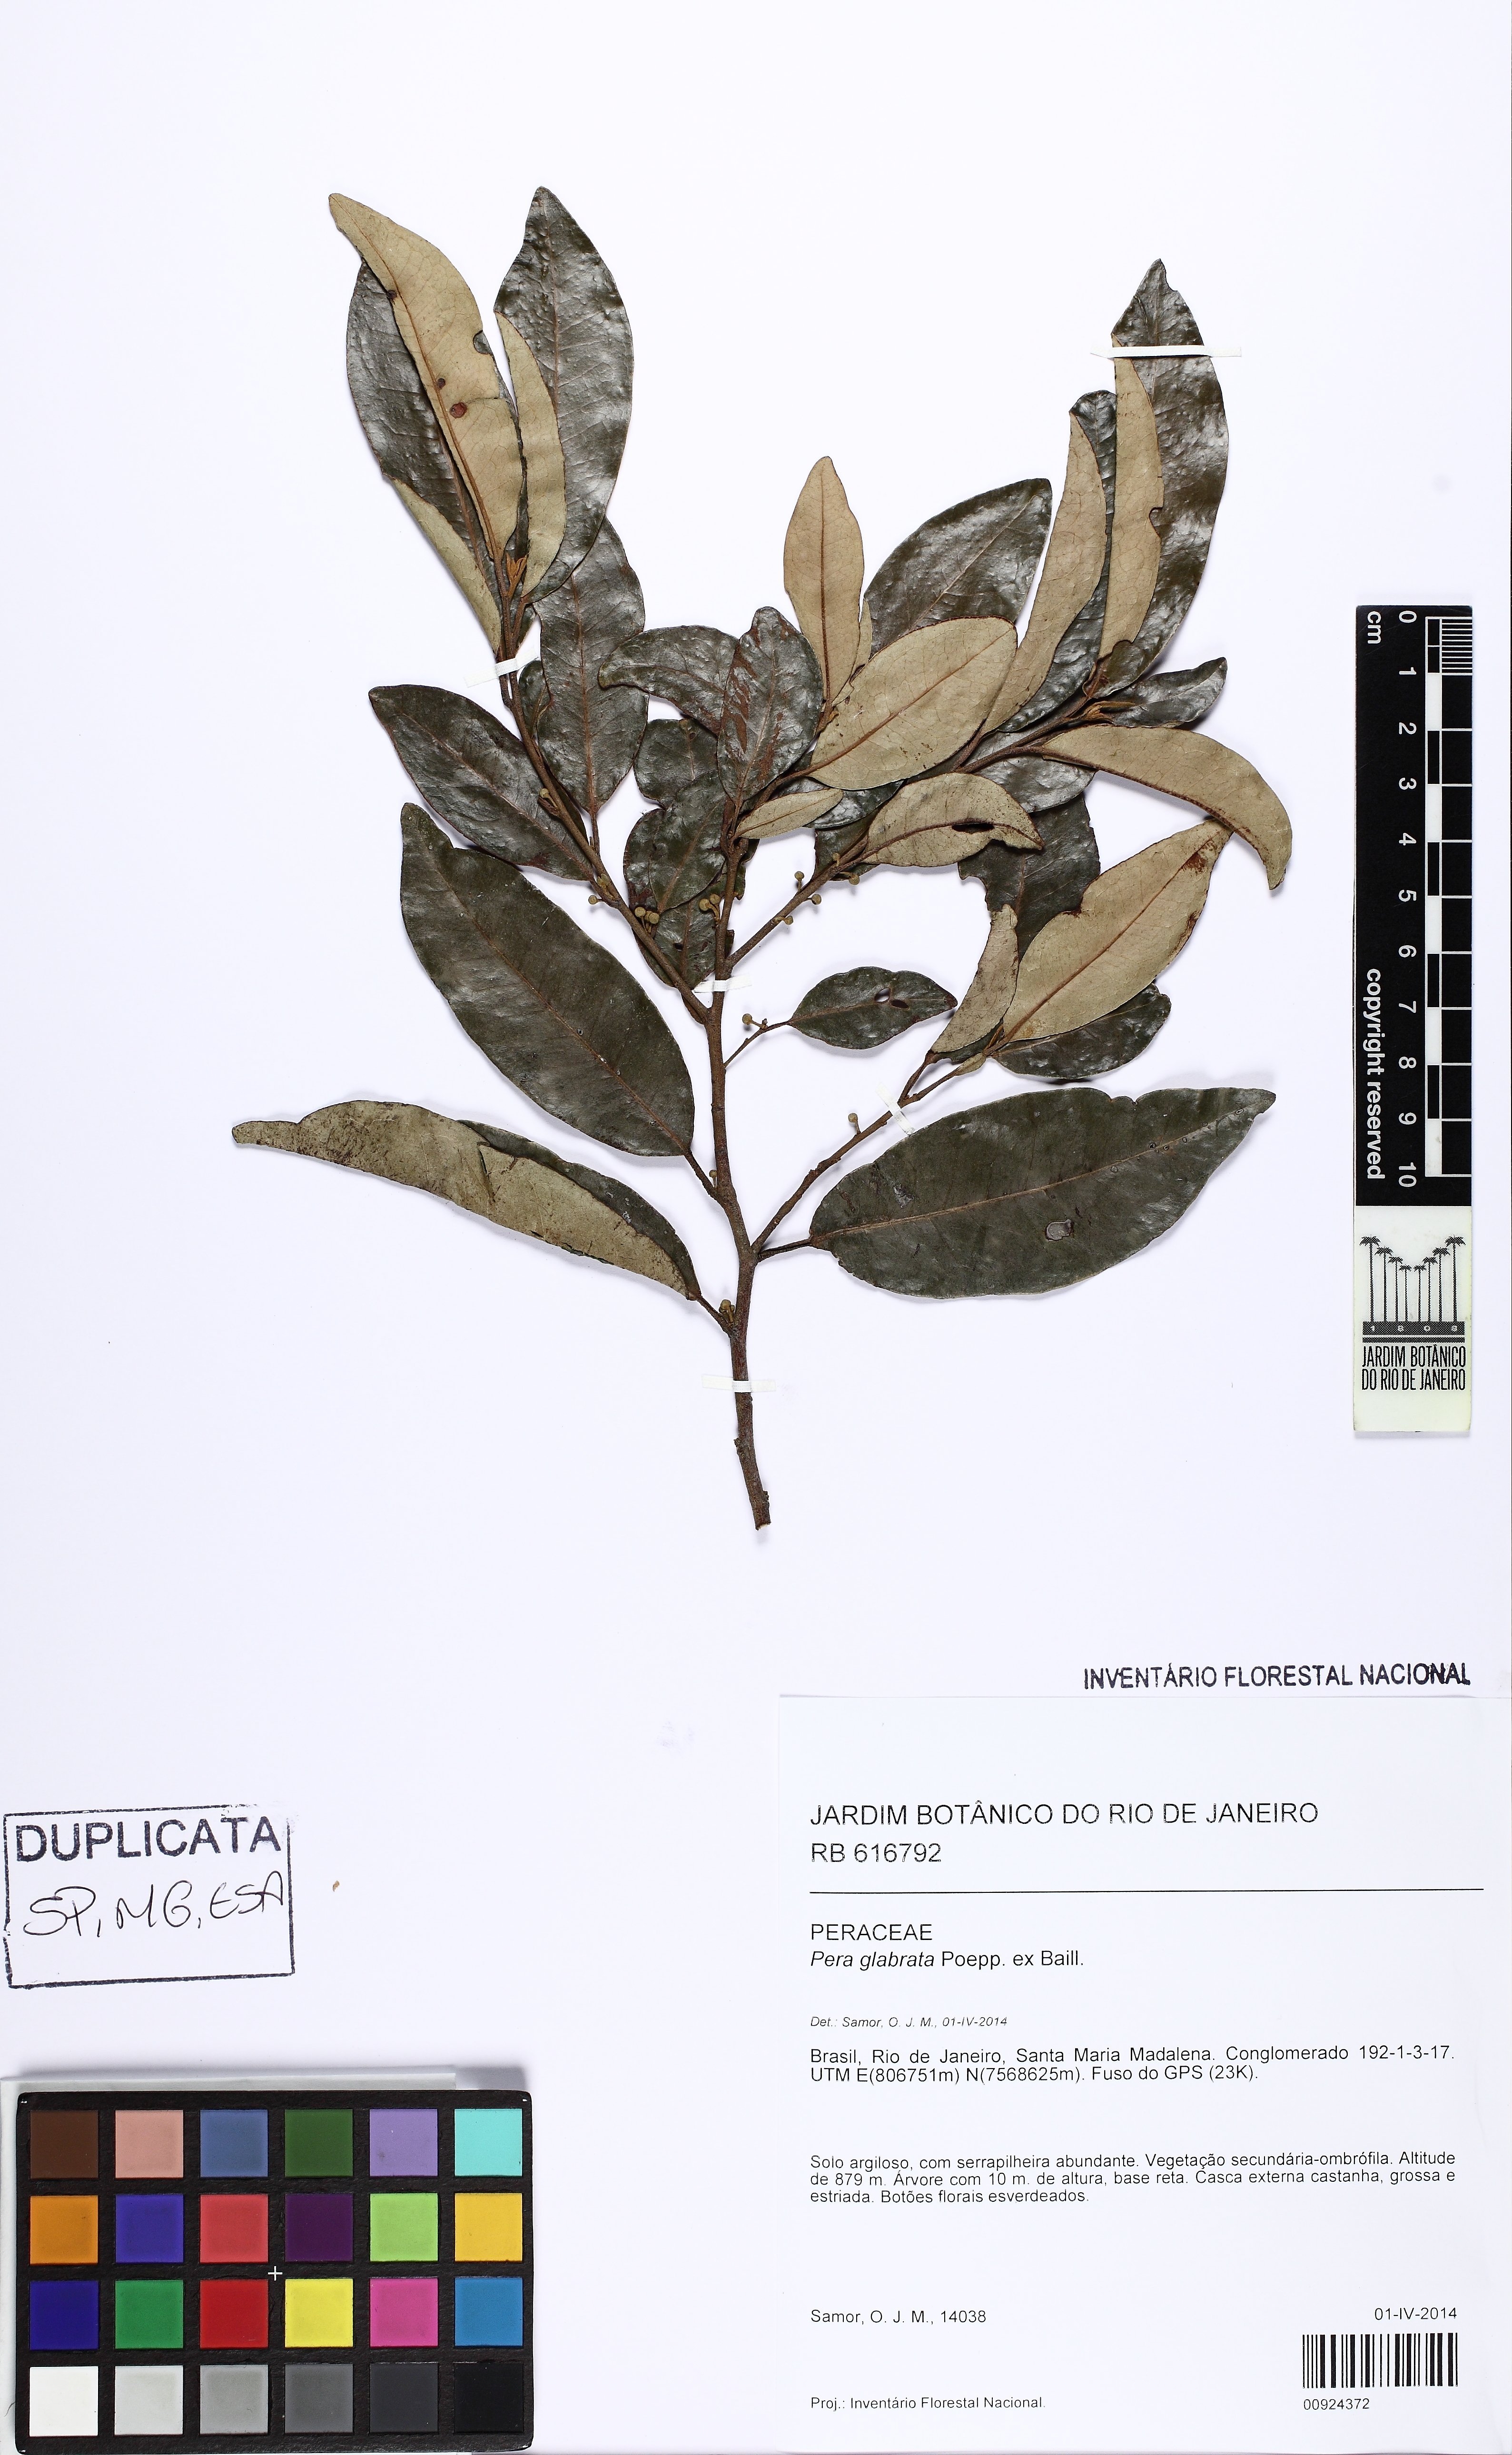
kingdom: Plantae
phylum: Tracheophyta
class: Magnoliopsida
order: Malpighiales
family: Peraceae
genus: Pera
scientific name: Pera glabrata
